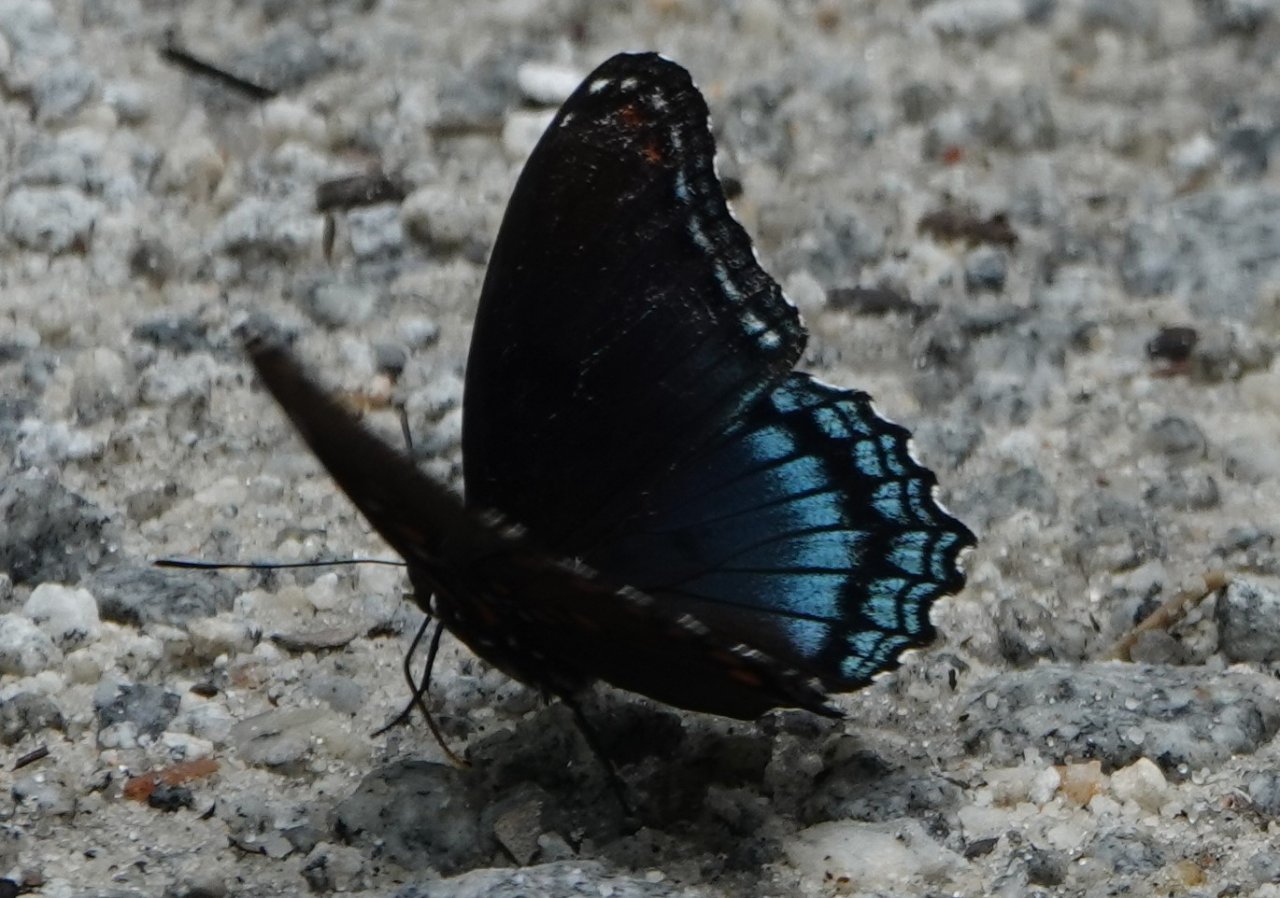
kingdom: Animalia
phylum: Arthropoda
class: Insecta
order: Lepidoptera
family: Nymphalidae
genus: Limenitis
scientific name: Limenitis astyanax
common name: Red-spotted Purple
